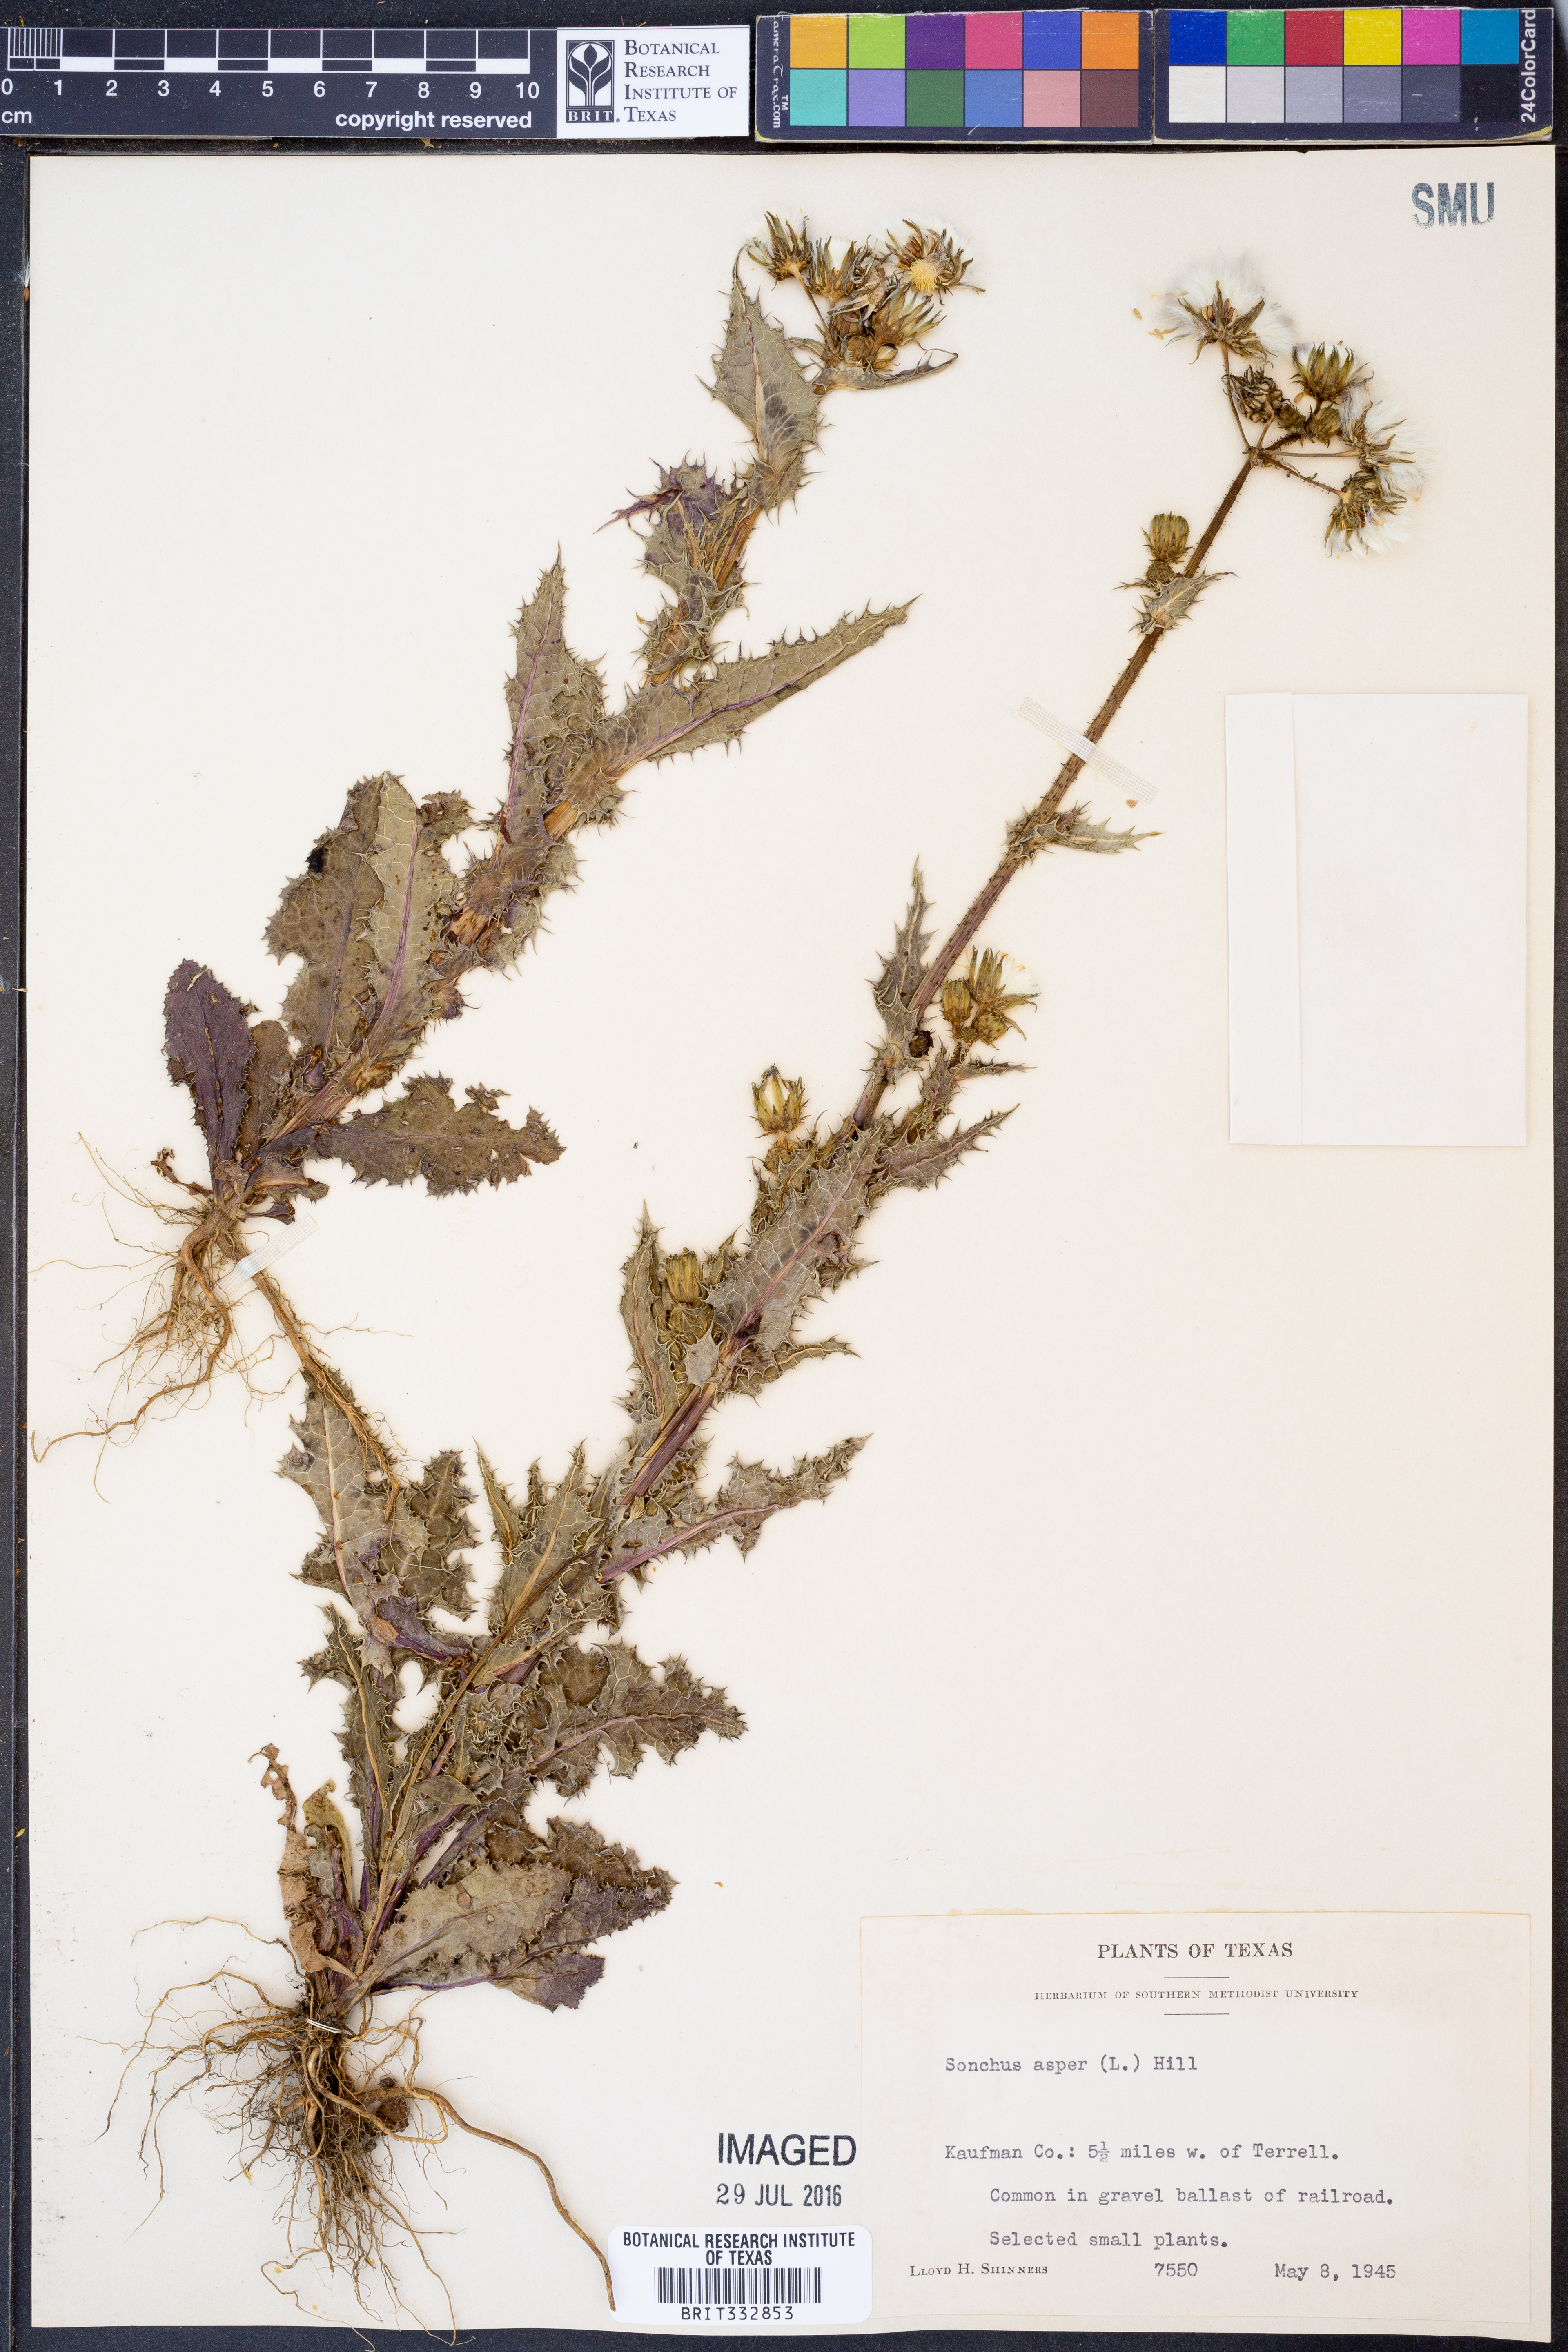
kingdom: Plantae
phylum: Tracheophyta
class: Magnoliopsida
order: Asterales
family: Asteraceae
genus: Sonchus
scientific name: Sonchus asper
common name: Prickly sow-thistle
